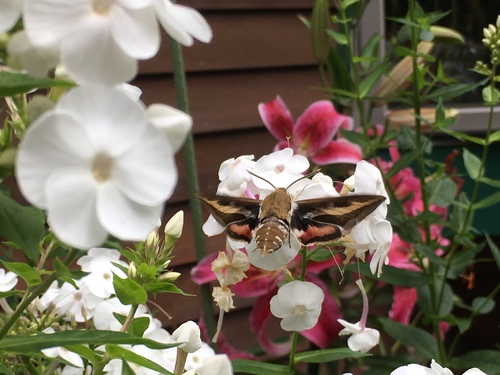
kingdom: Animalia
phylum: Arthropoda
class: Insecta
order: Lepidoptera
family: Sphingidae
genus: Hyles
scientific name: Hyles gallii
